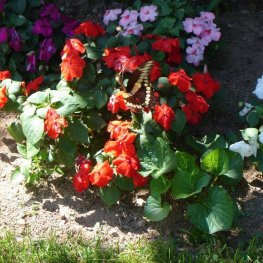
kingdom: Animalia
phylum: Arthropoda
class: Insecta
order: Lepidoptera
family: Papilionidae
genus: Papilio
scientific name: Papilio cresphontes
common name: Eastern Giant Swallowtail
